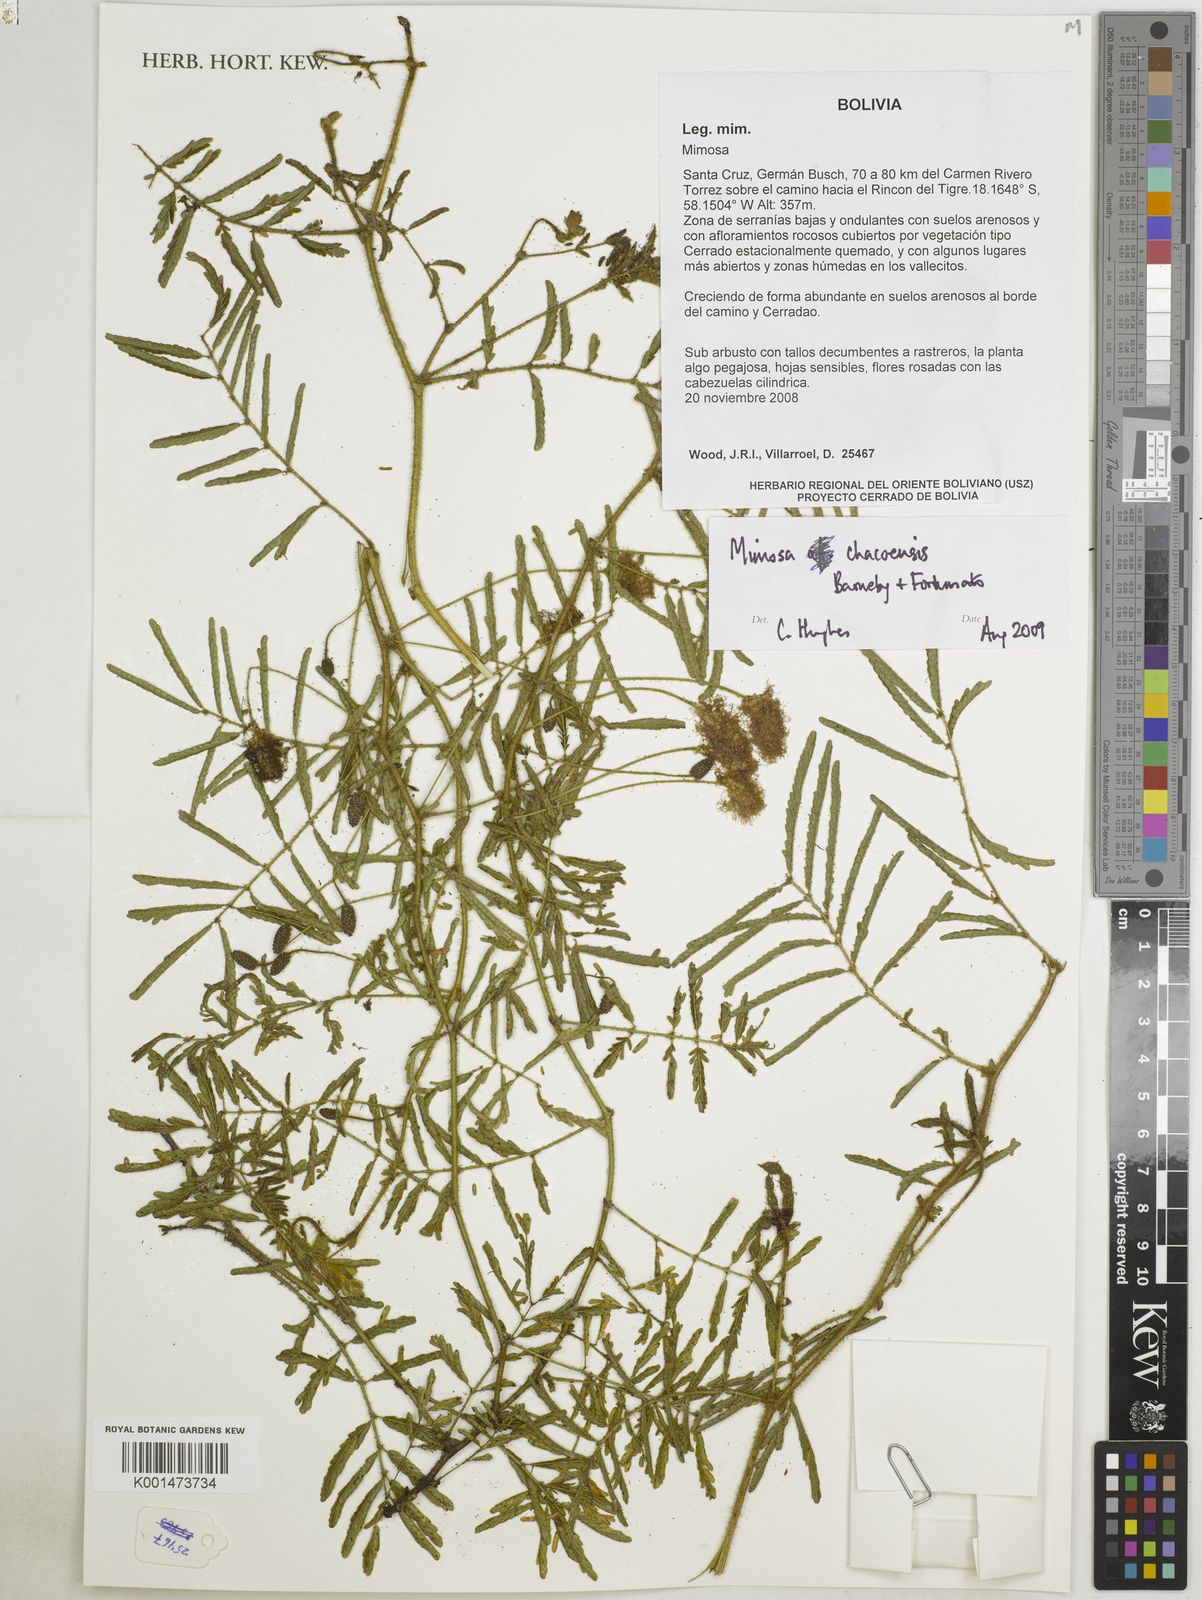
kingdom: Plantae
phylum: Tracheophyta
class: Magnoliopsida
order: Fabales
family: Fabaceae
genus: Mimosa
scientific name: Mimosa chacoensis
